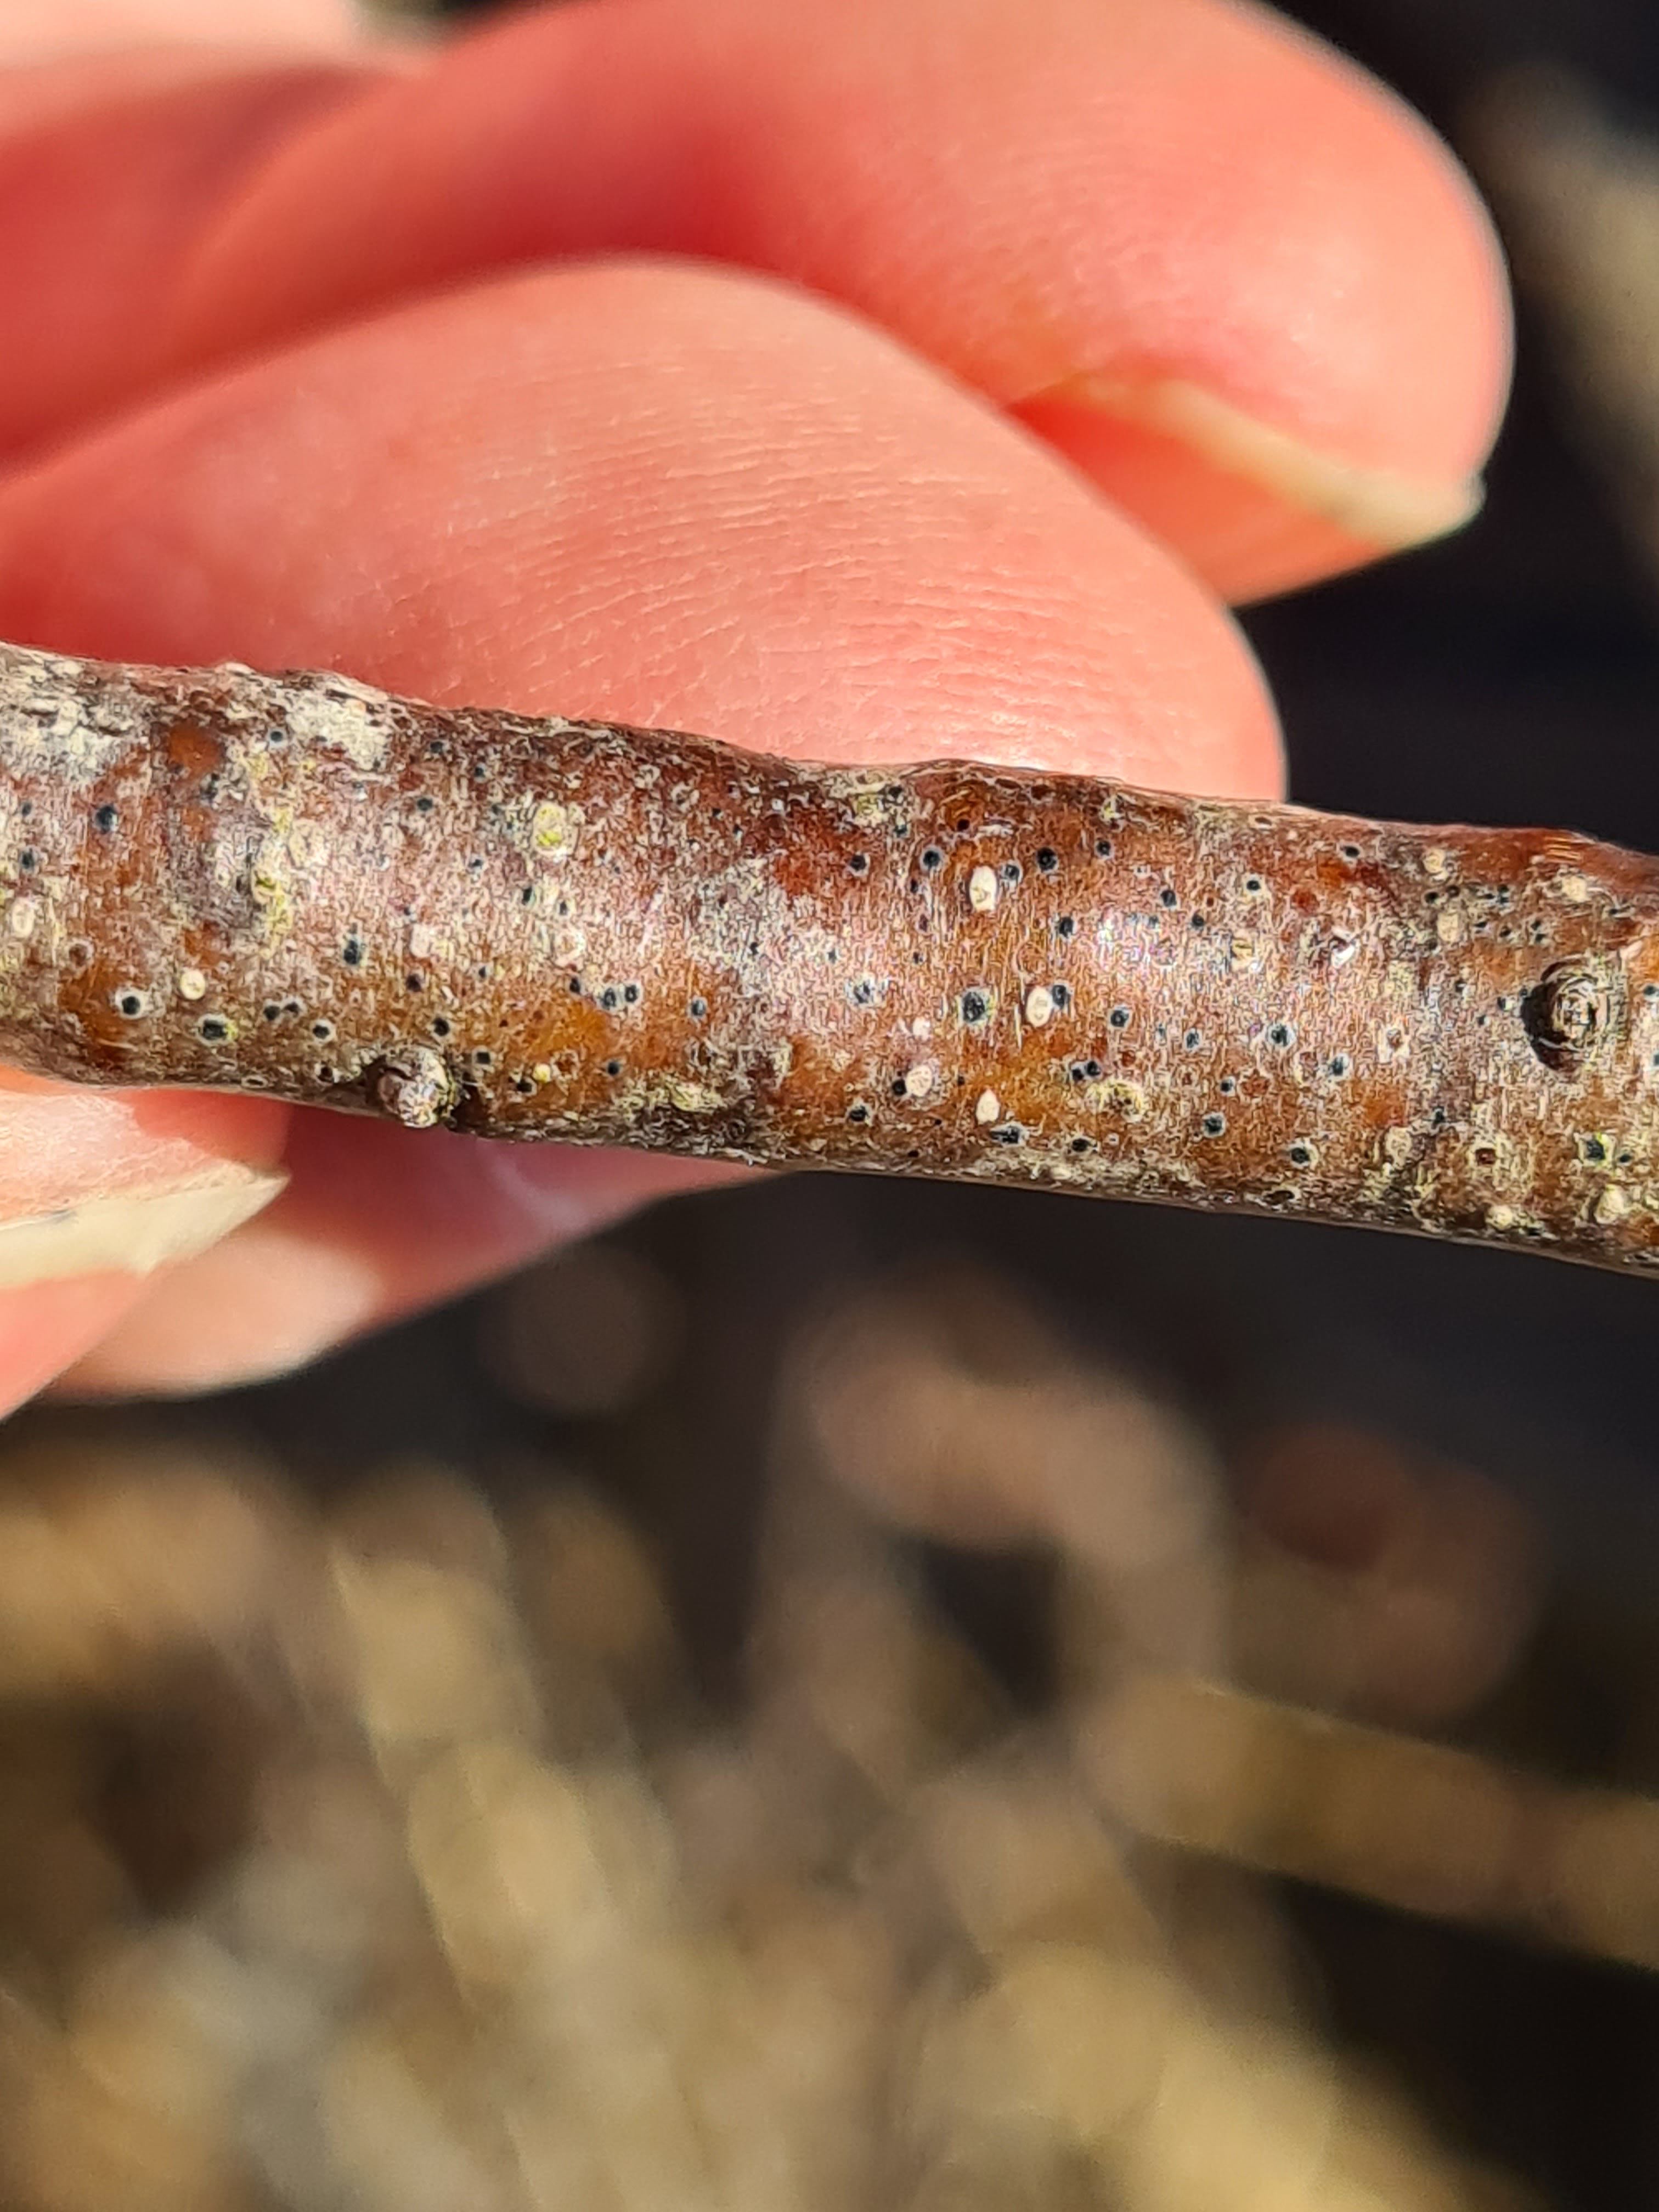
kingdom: Fungi
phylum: Ascomycota
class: Dothideomycetes
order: Dothideales
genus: Mycoglaena
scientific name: Mycoglaena myricae
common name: liden porsprik
